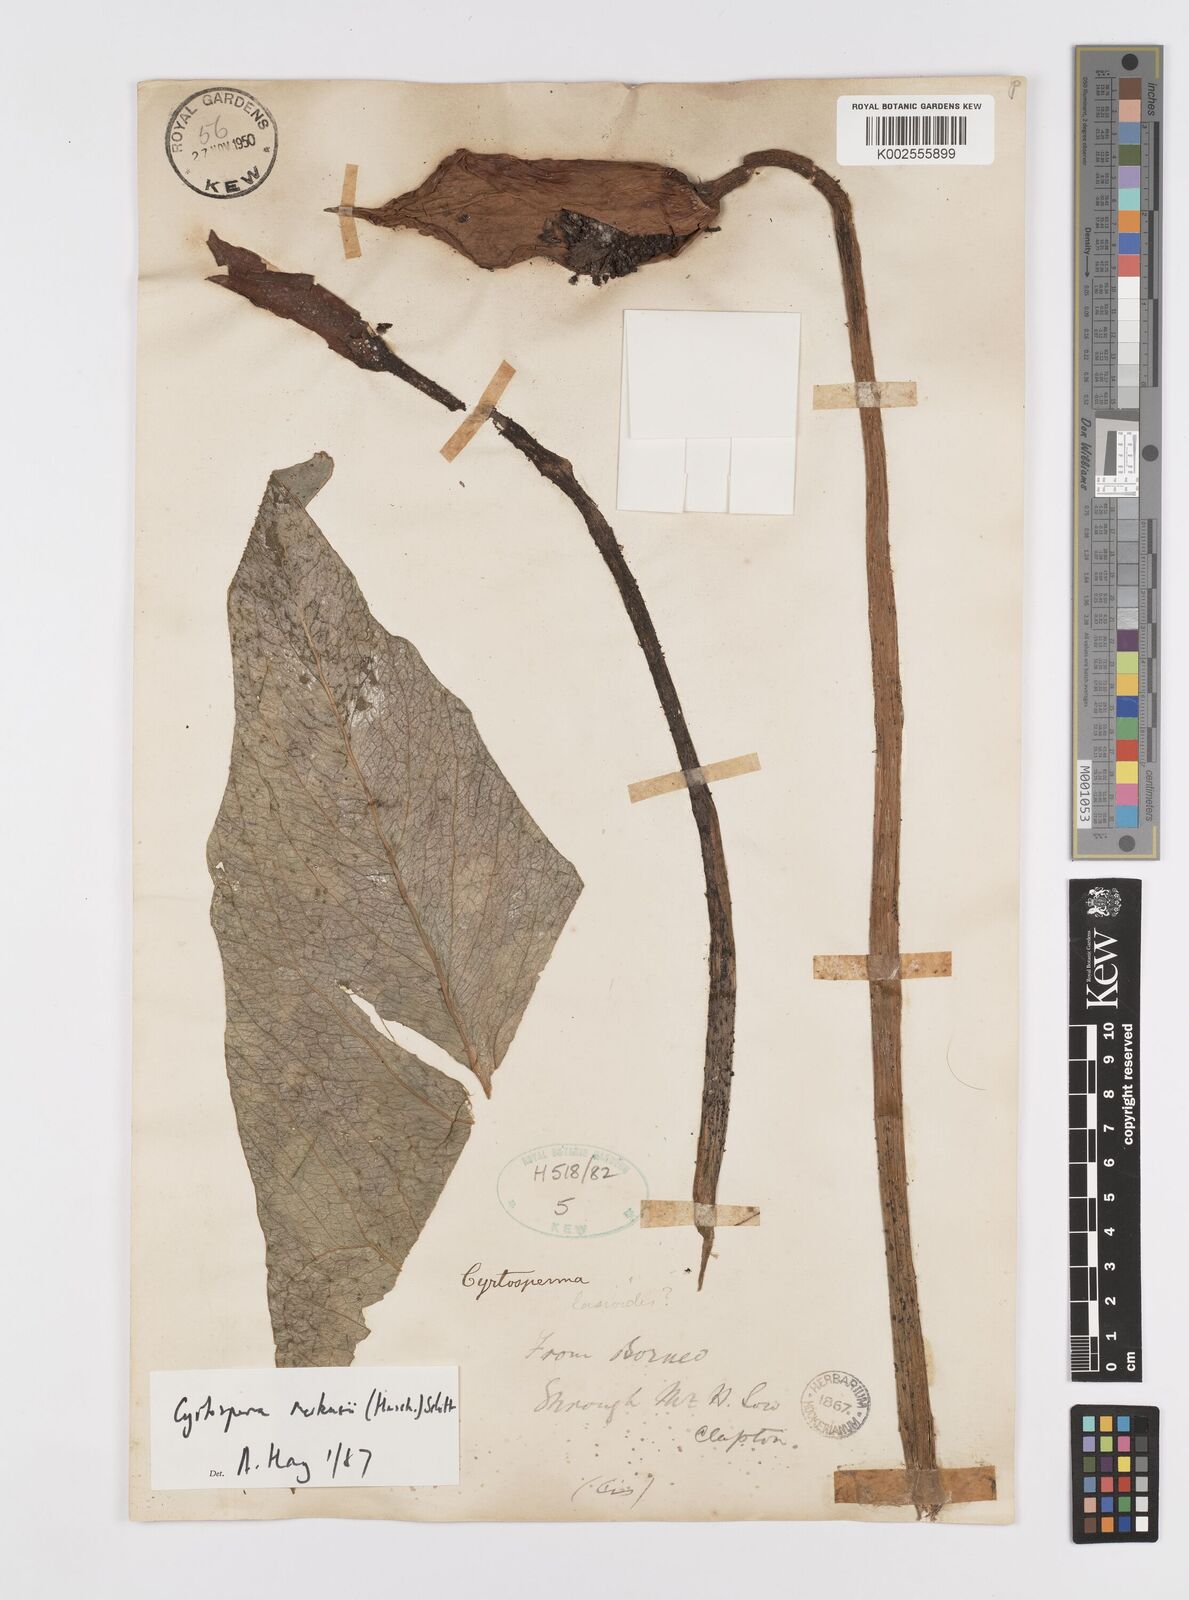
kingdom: Plantae
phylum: Tracheophyta
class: Liliopsida
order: Alismatales
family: Araceae
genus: Cyrtosperma
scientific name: Cyrtosperma merkusii
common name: Giant swamp-taro
